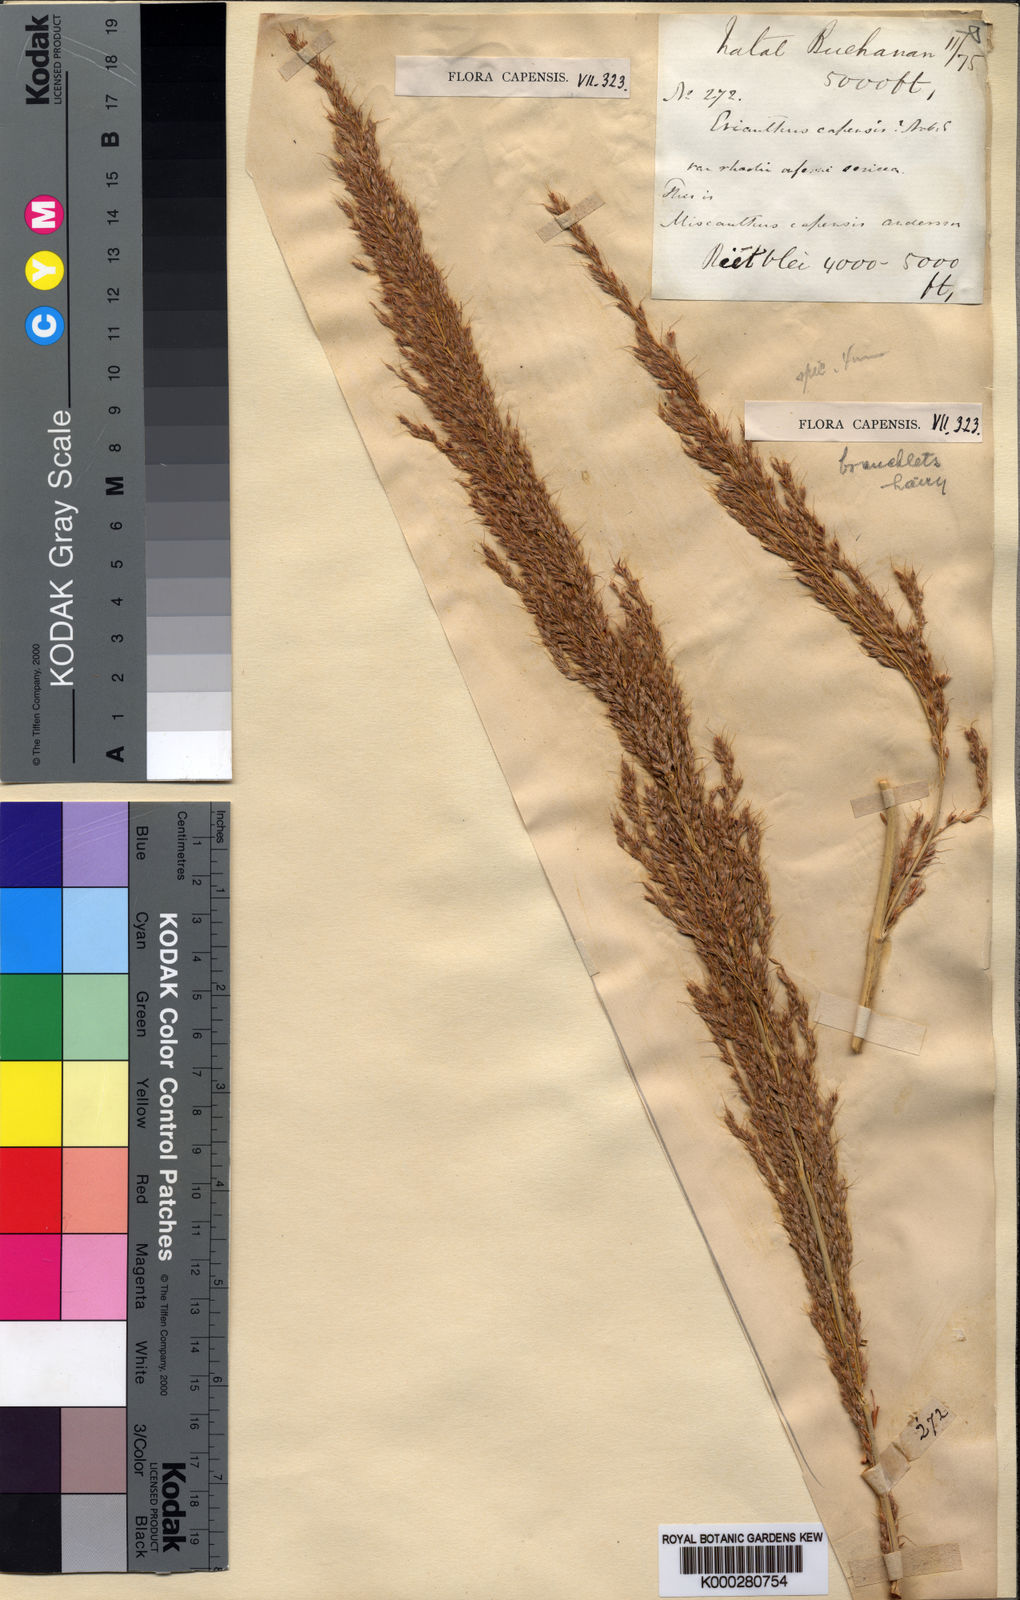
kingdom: Plantae
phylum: Tracheophyta
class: Liliopsida
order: Poales
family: Poaceae
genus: Miscanthus
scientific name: Miscanthus ecklonii
